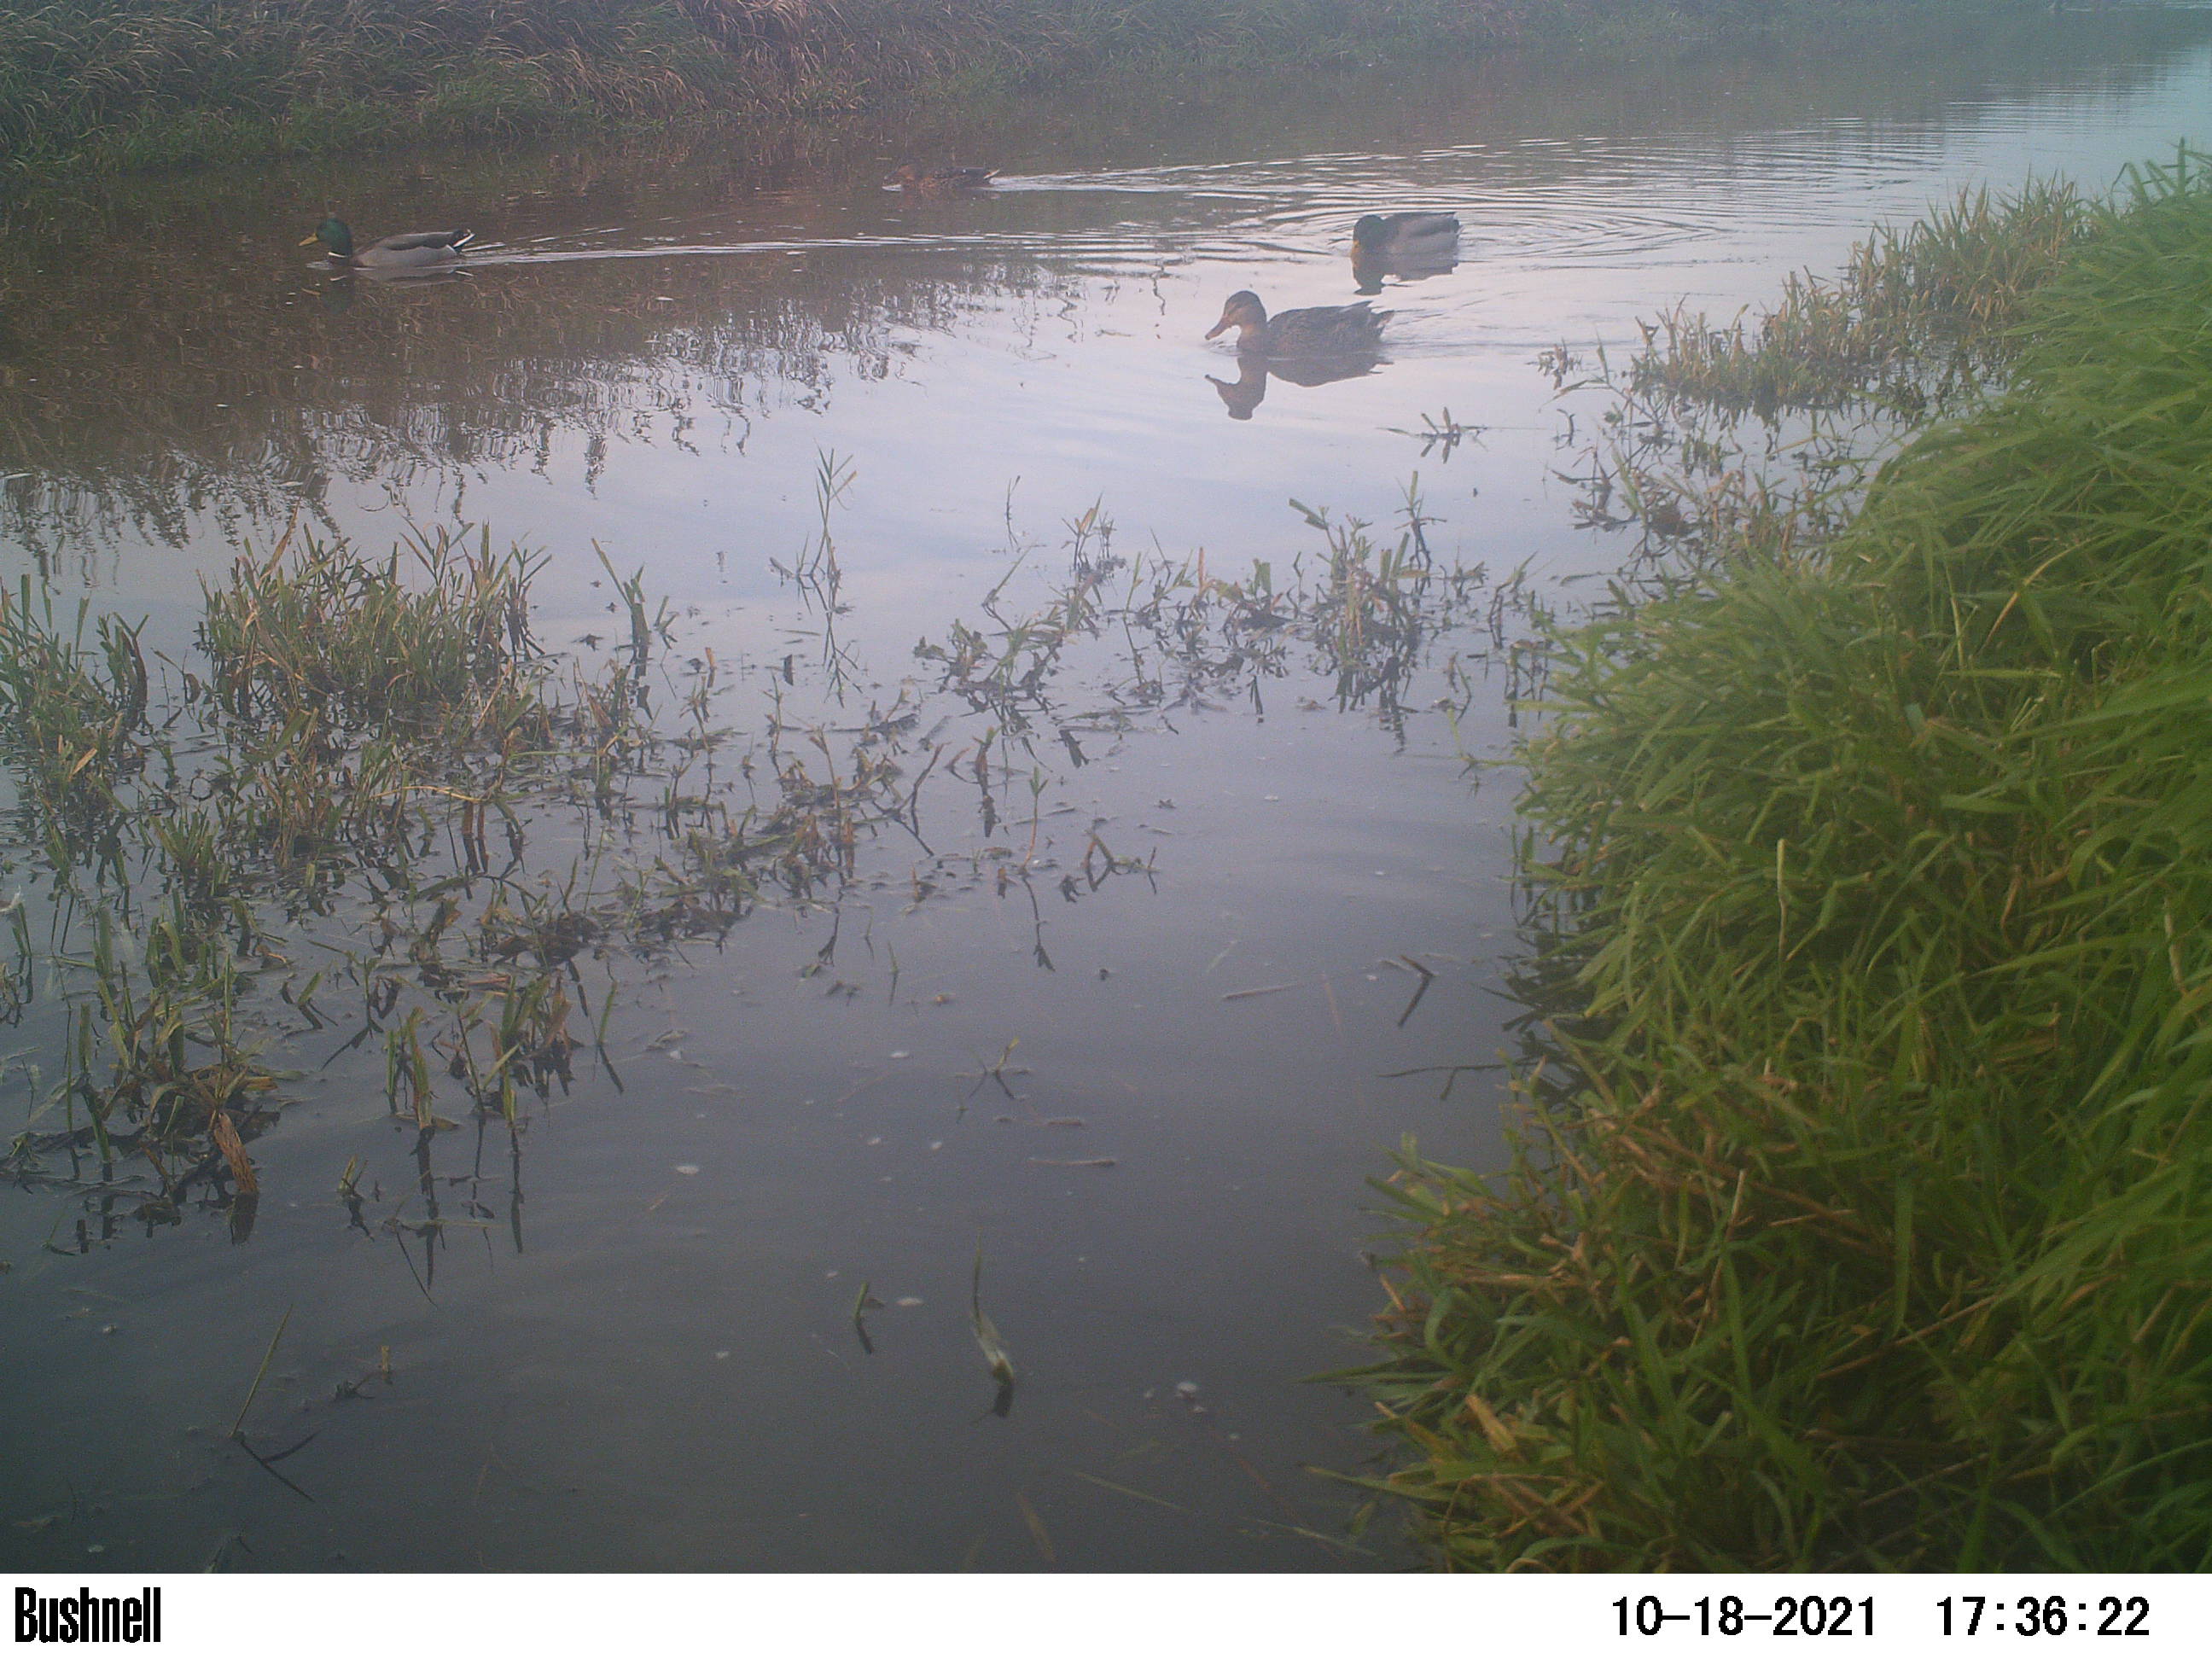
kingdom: Animalia
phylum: Chordata
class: Aves
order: Gruiformes
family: Rallidae
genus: Fulica
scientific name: Fulica atra
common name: Eurasian coot
